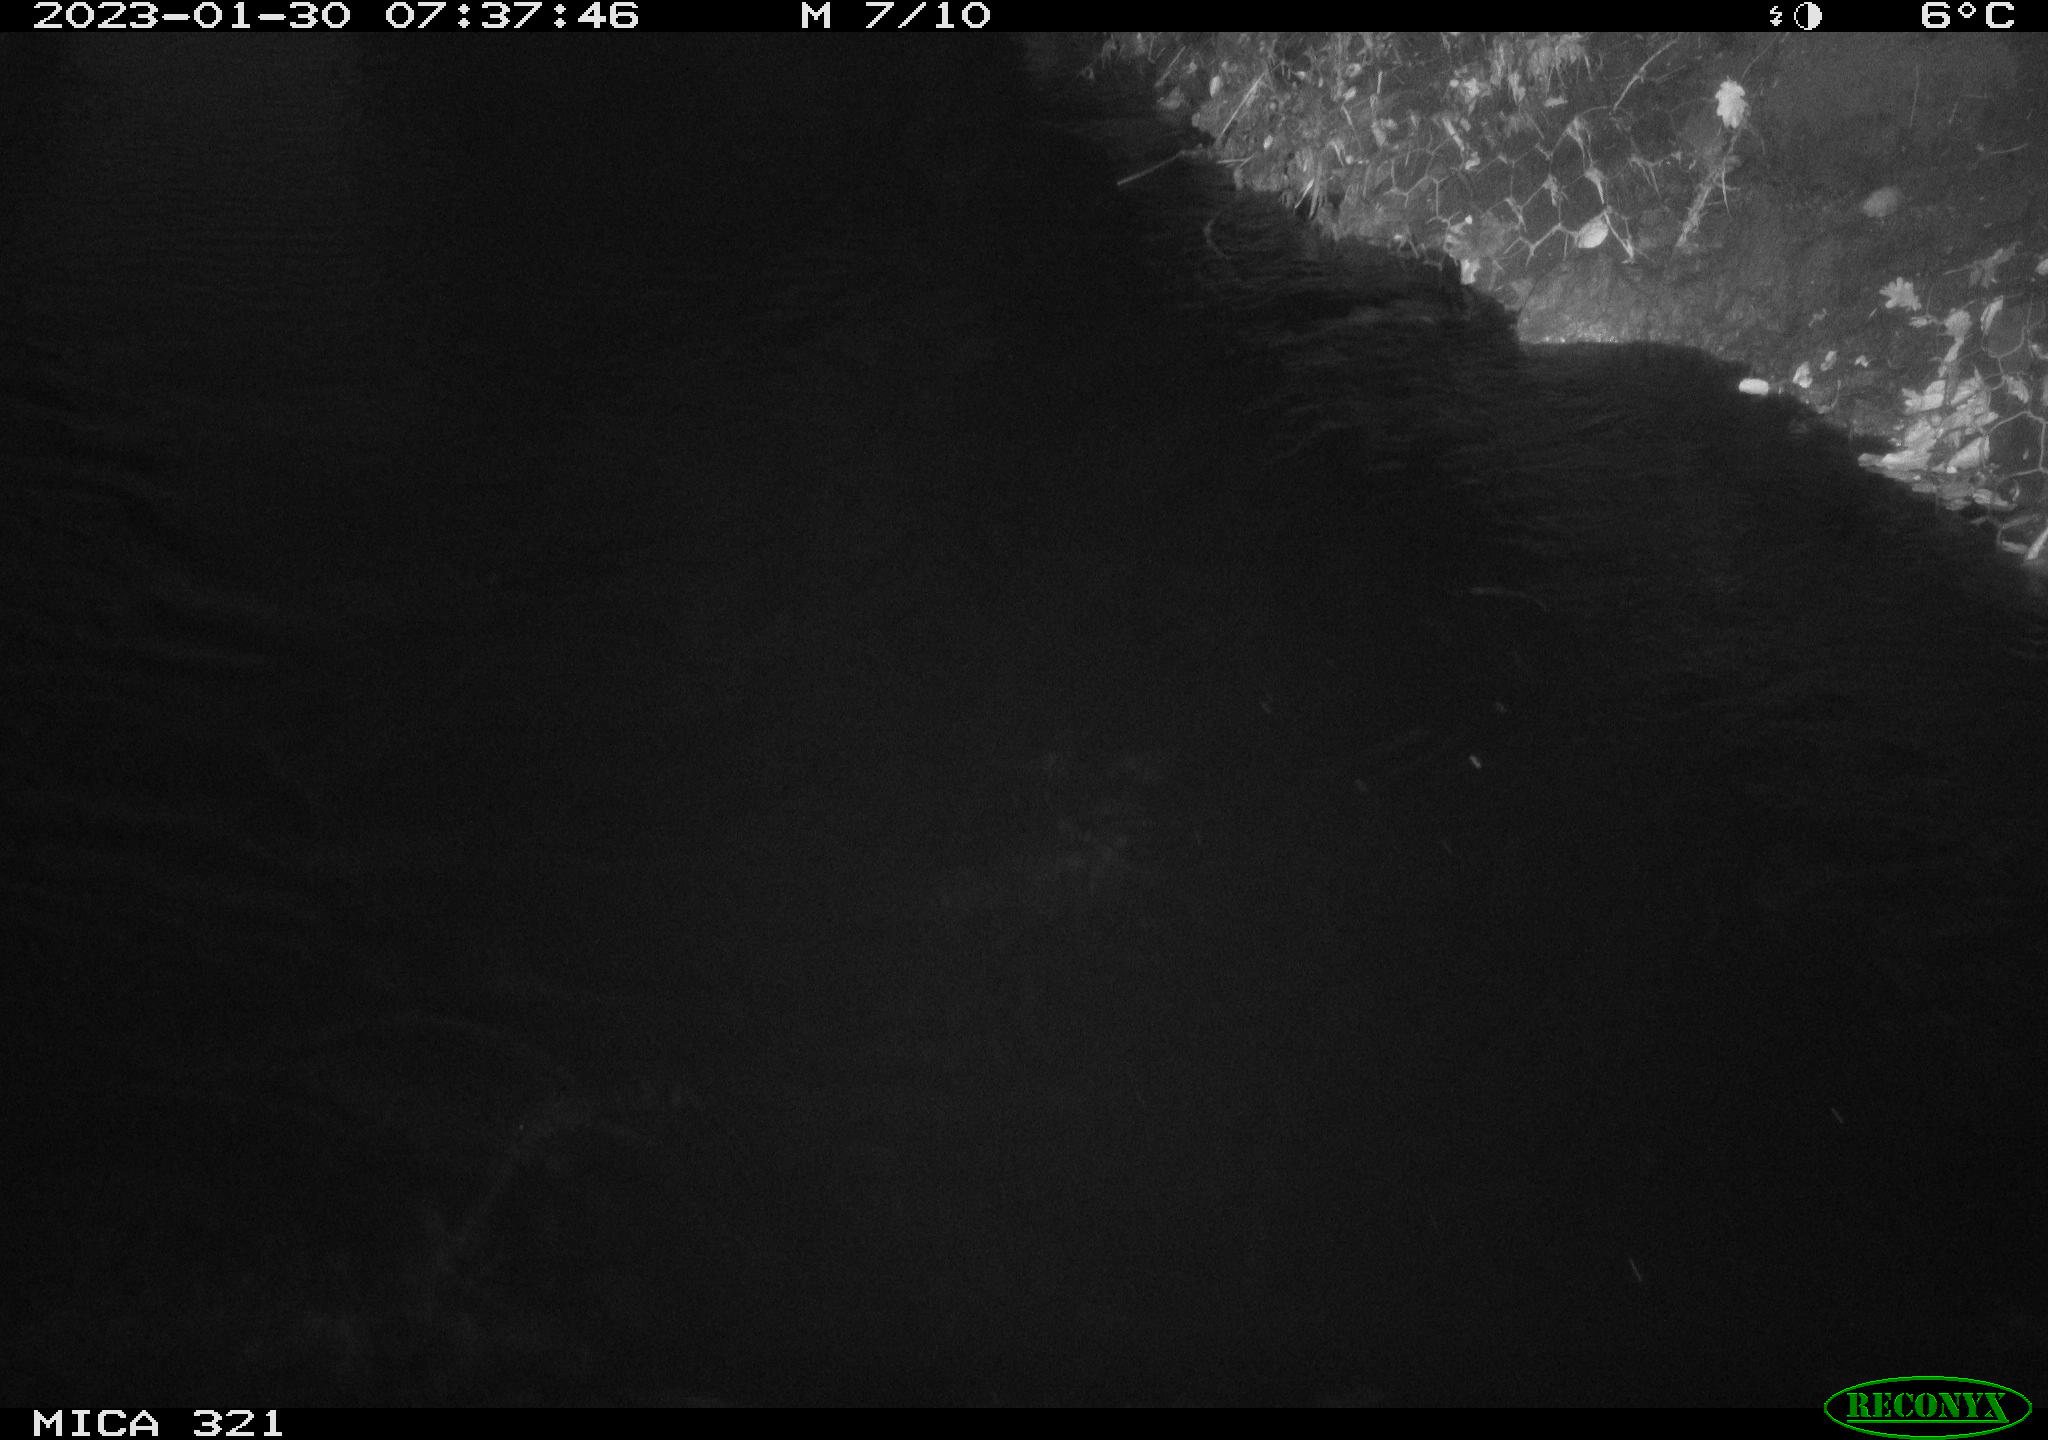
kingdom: Animalia
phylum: Chordata
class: Mammalia
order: Rodentia
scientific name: Rodentia
